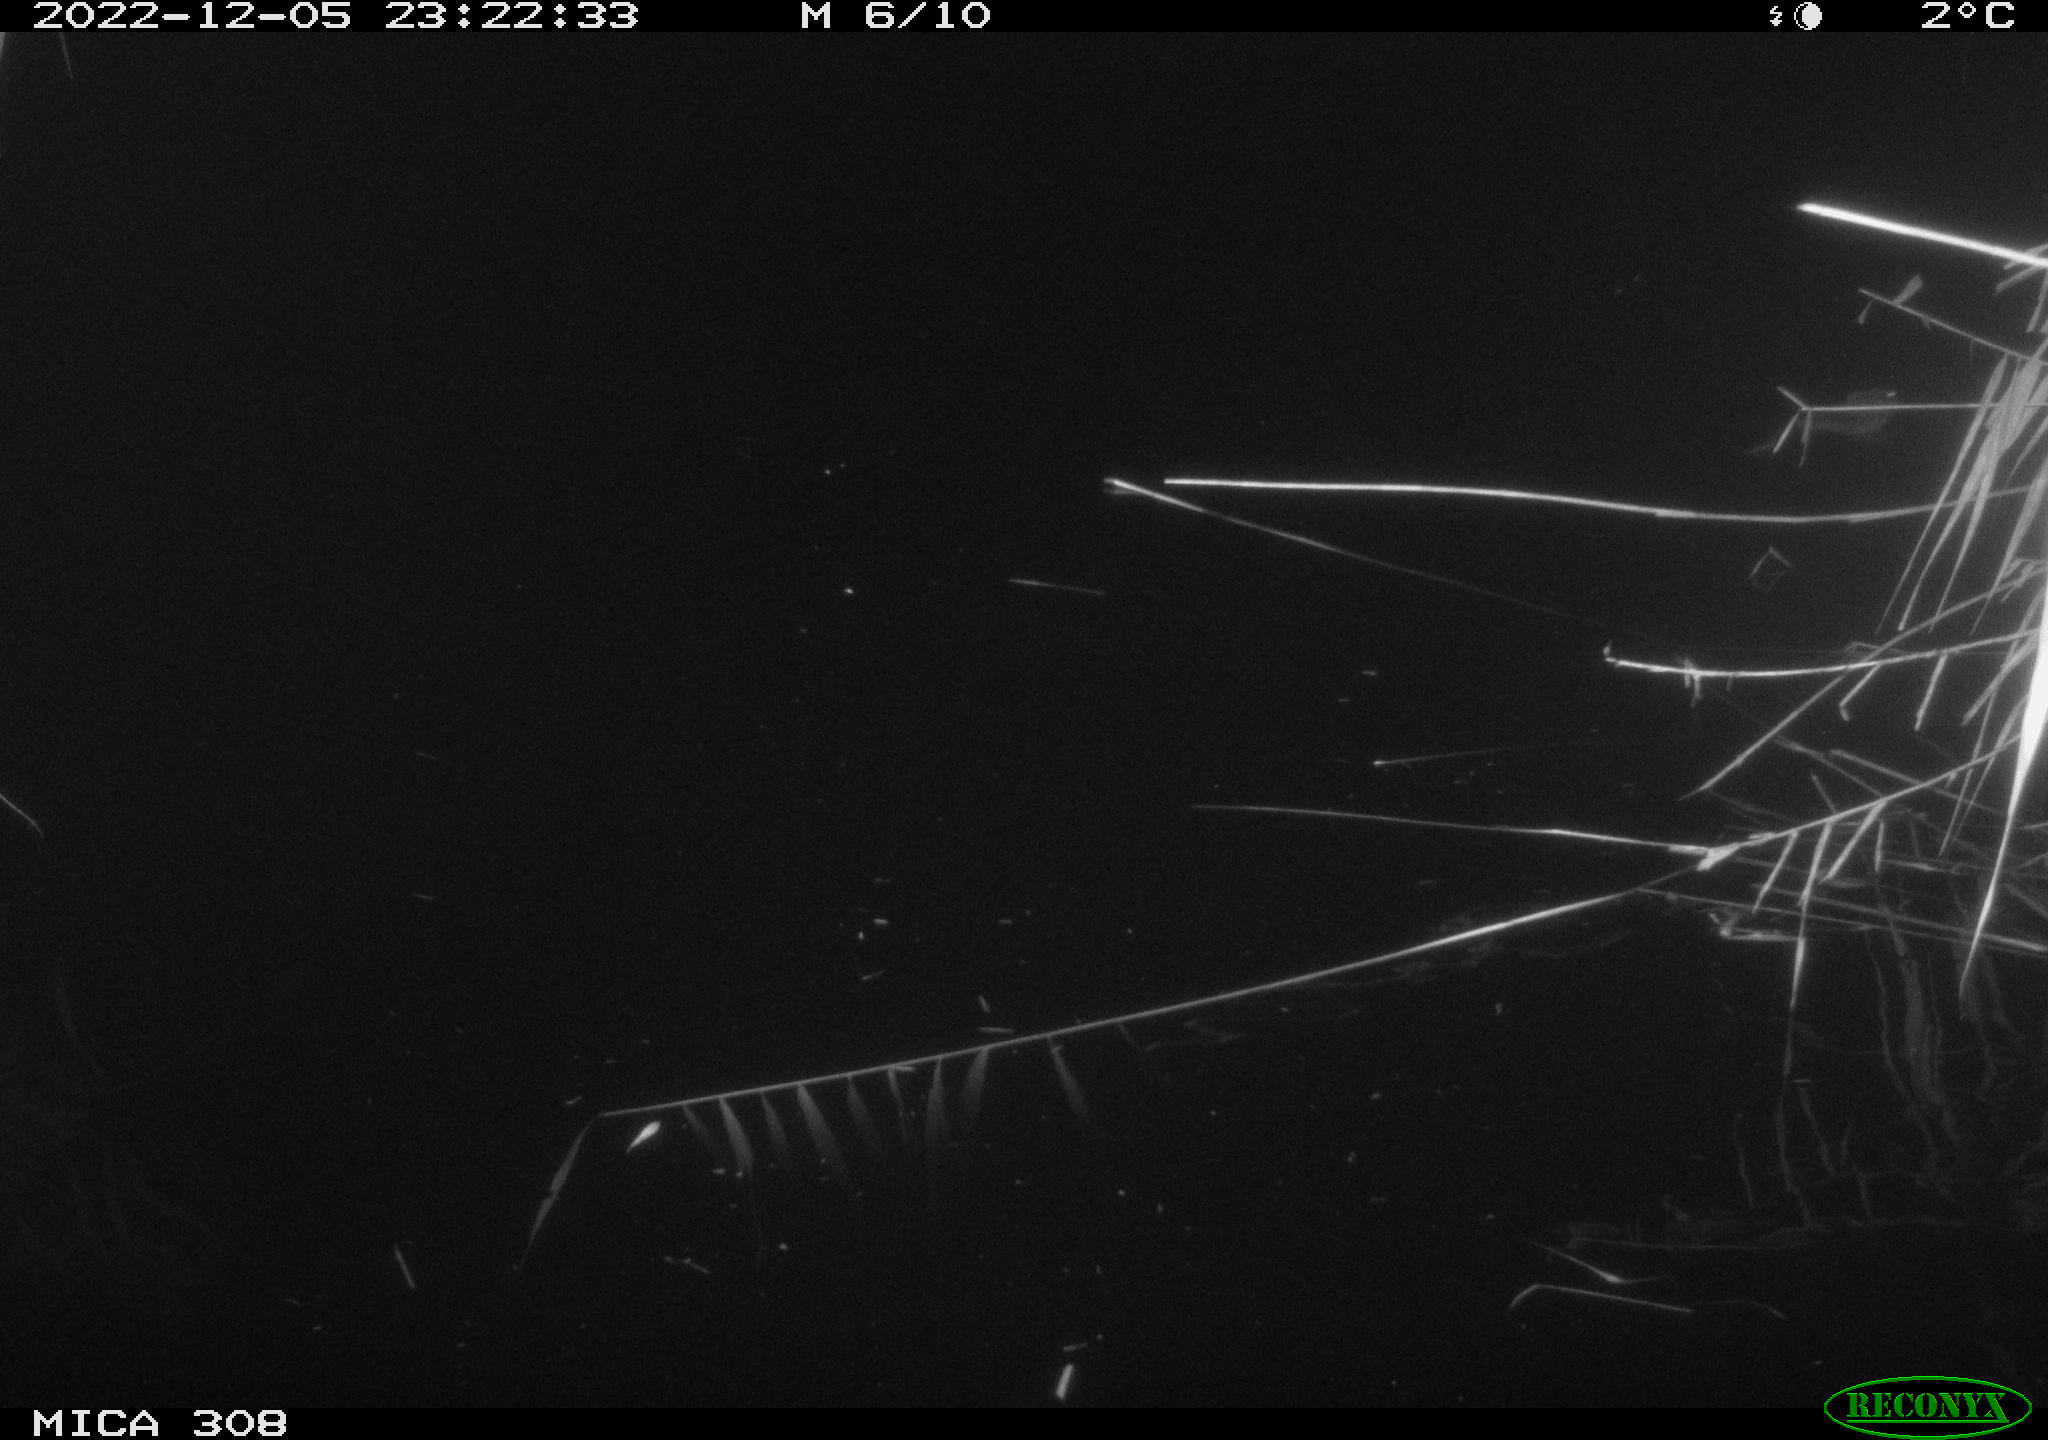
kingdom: Animalia
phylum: Chordata
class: Mammalia
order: Rodentia
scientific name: Rodentia
